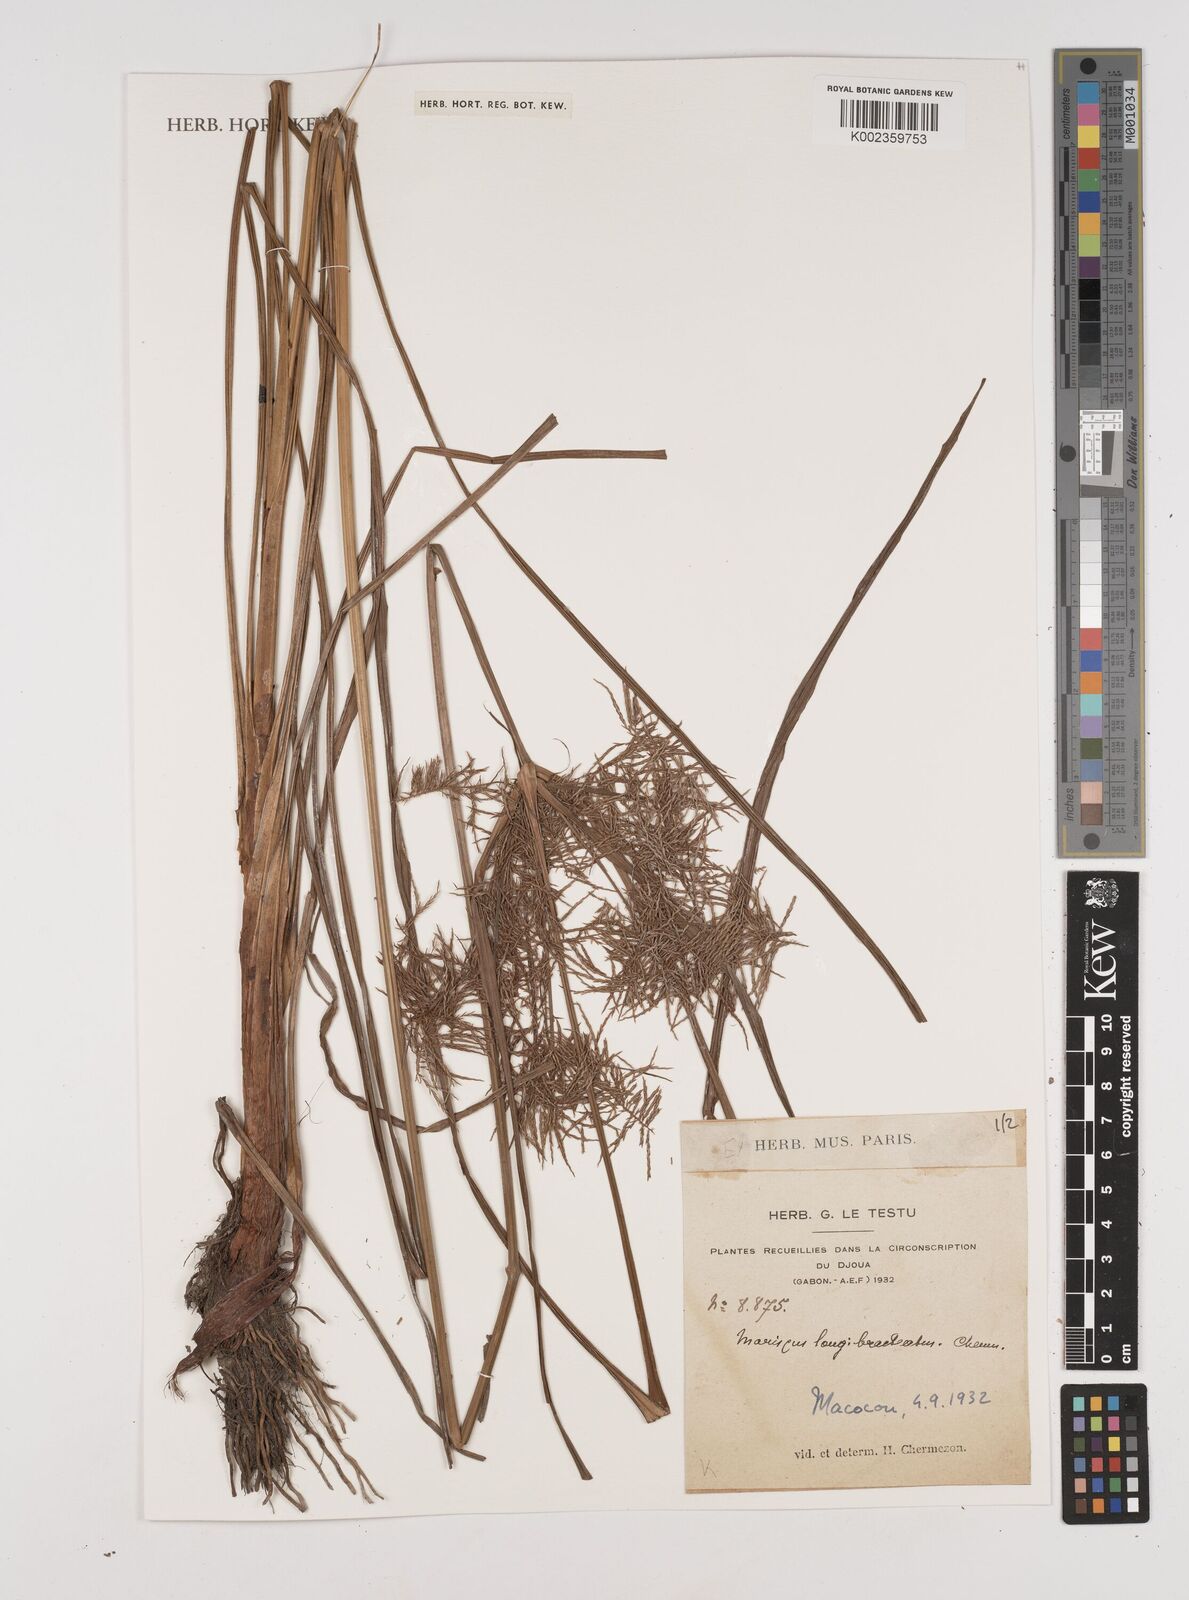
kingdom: Plantae
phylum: Tracheophyta
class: Liliopsida
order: Poales
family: Cyperaceae
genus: Cyperus
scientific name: Cyperus distans
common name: Slender cyperus
